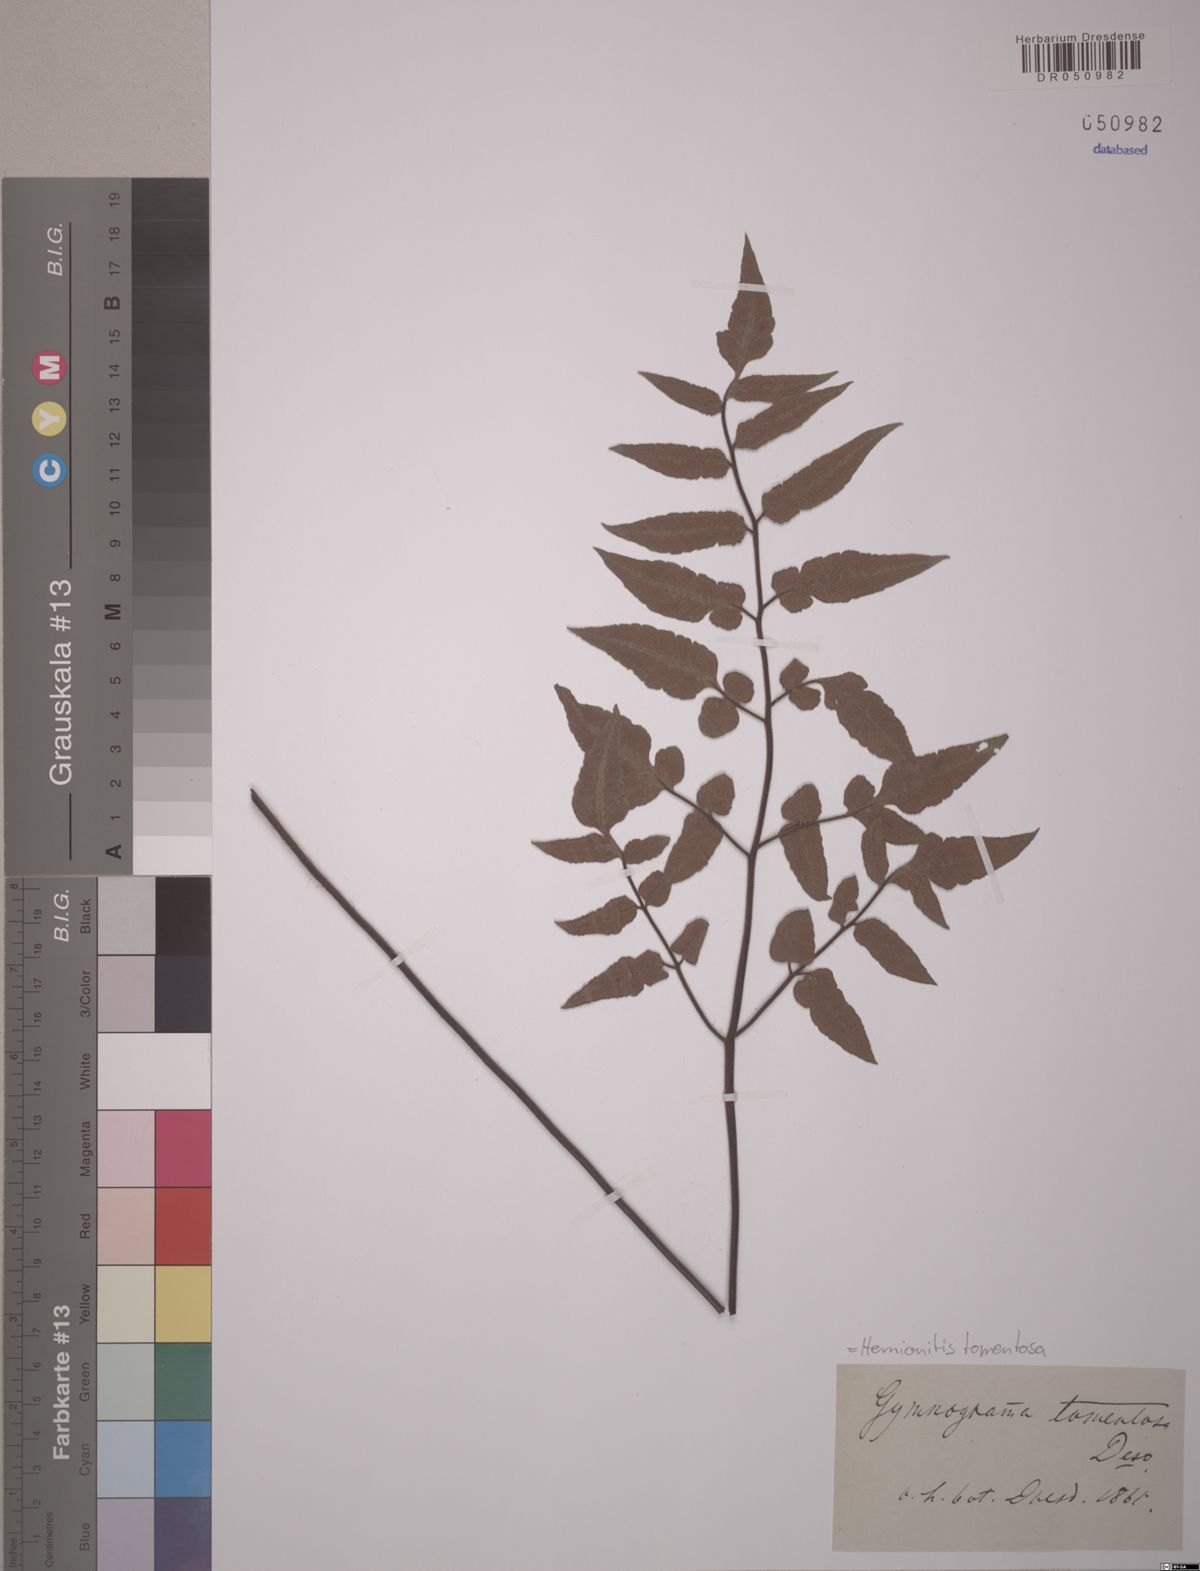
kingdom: Plantae
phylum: Tracheophyta
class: Polypodiopsida
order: Polypodiales
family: Pteridaceae
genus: Hemionitis
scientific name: Hemionitis tomentosa
